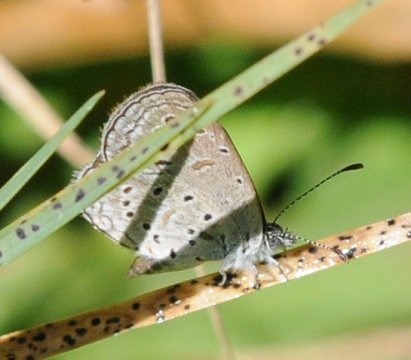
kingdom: Animalia
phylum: Arthropoda
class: Insecta
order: Lepidoptera
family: Lycaenidae
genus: Zizula
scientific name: Zizula hylax
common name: Tiny Grass Blue
